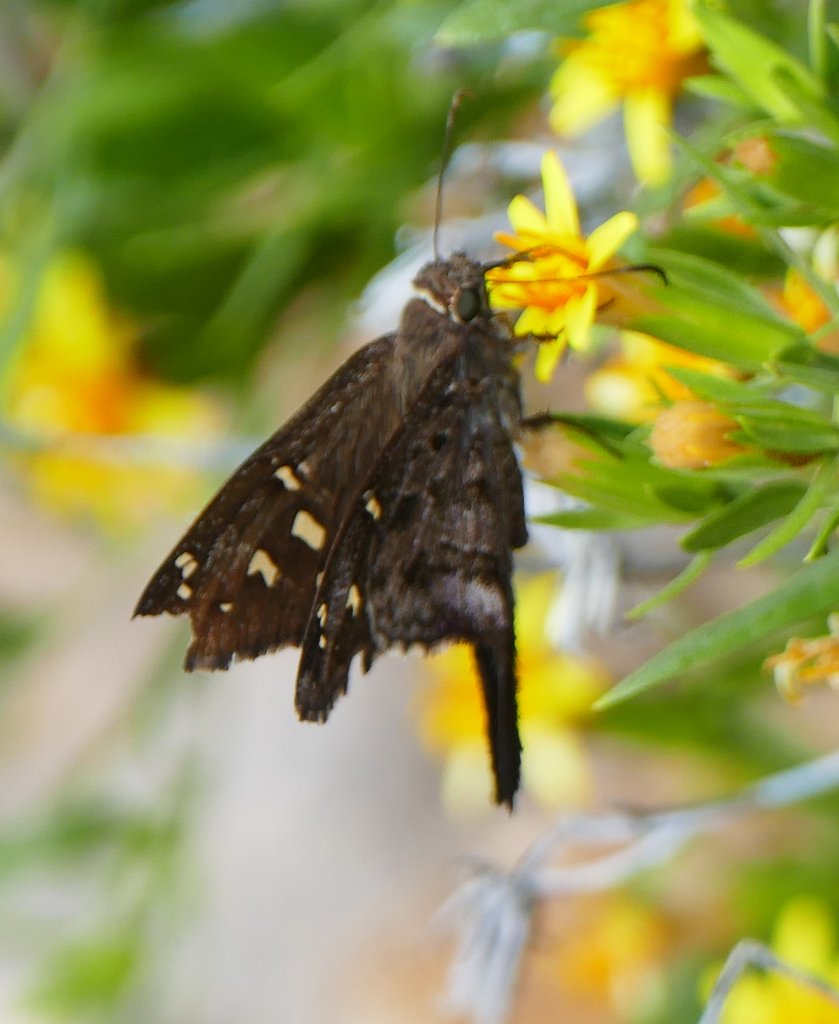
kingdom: Animalia
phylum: Arthropoda
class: Insecta
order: Lepidoptera
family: Hesperiidae
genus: Urbanus
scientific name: Urbanus dorantes
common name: Dorantes Longtail
